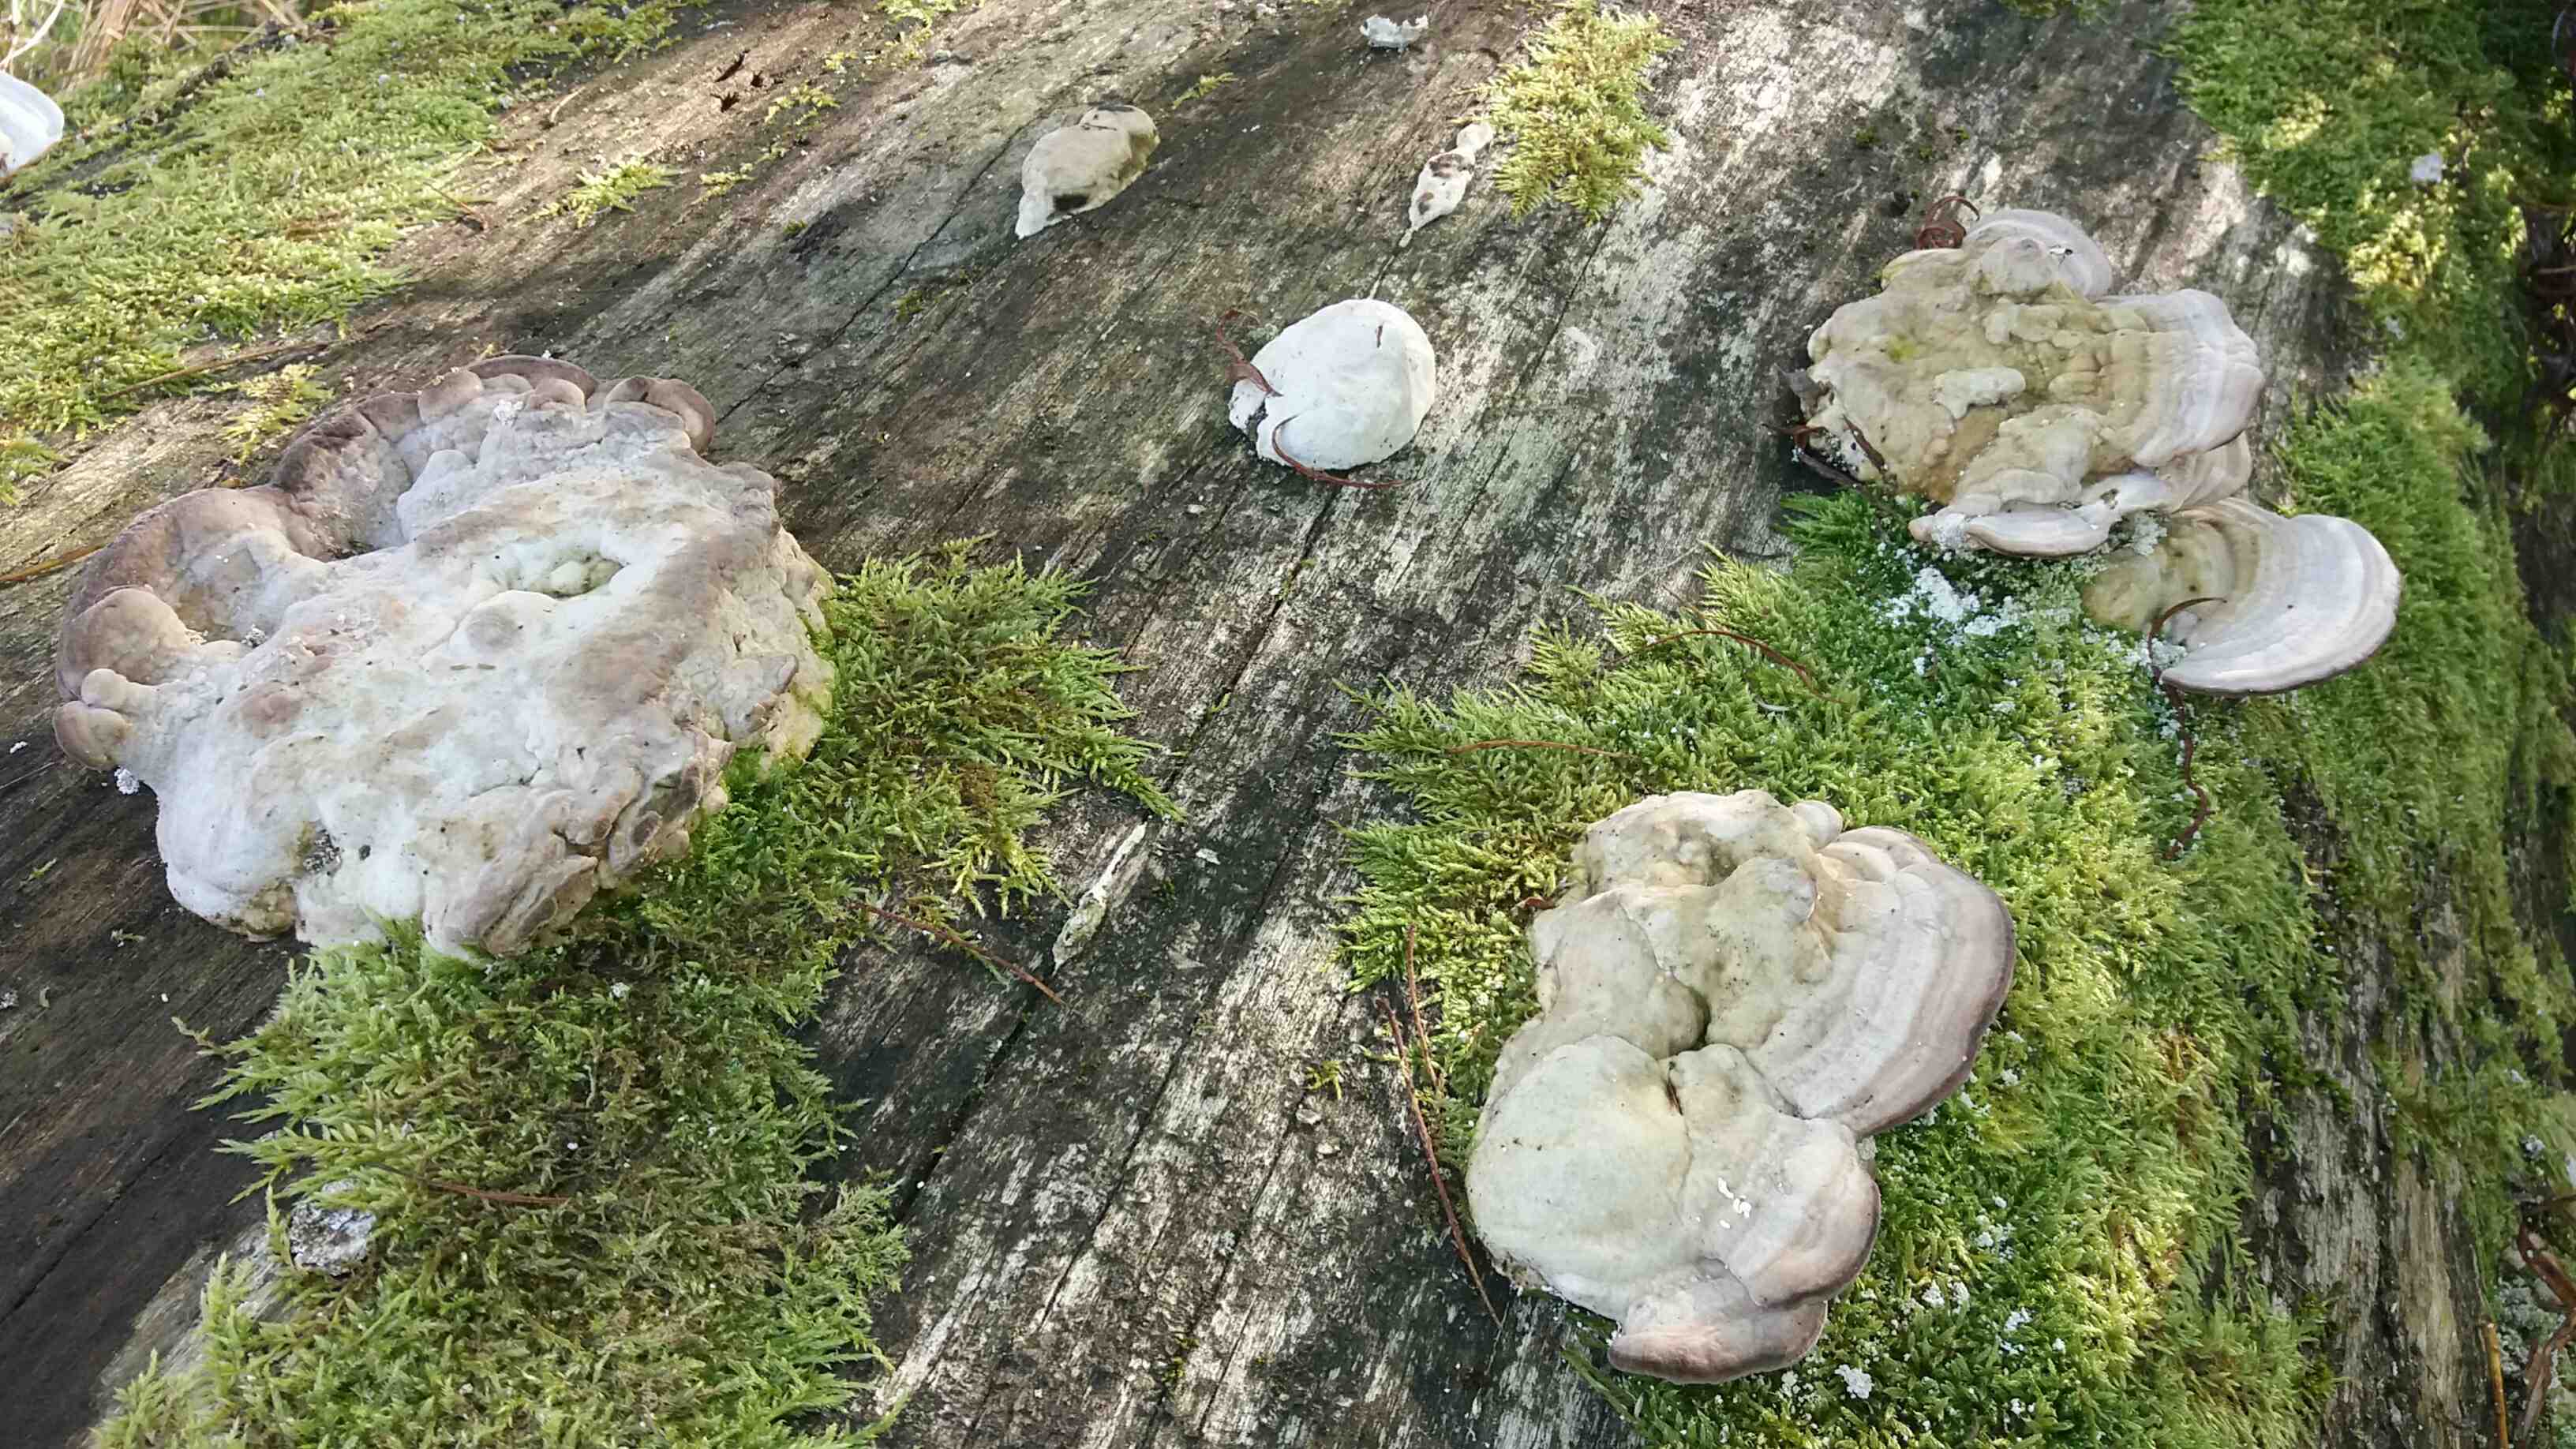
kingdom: Fungi
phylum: Basidiomycota
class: Agaricomycetes
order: Polyporales
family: Polyporaceae
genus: Trametes
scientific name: Trametes gibbosa
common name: puklet læderporesvamp
